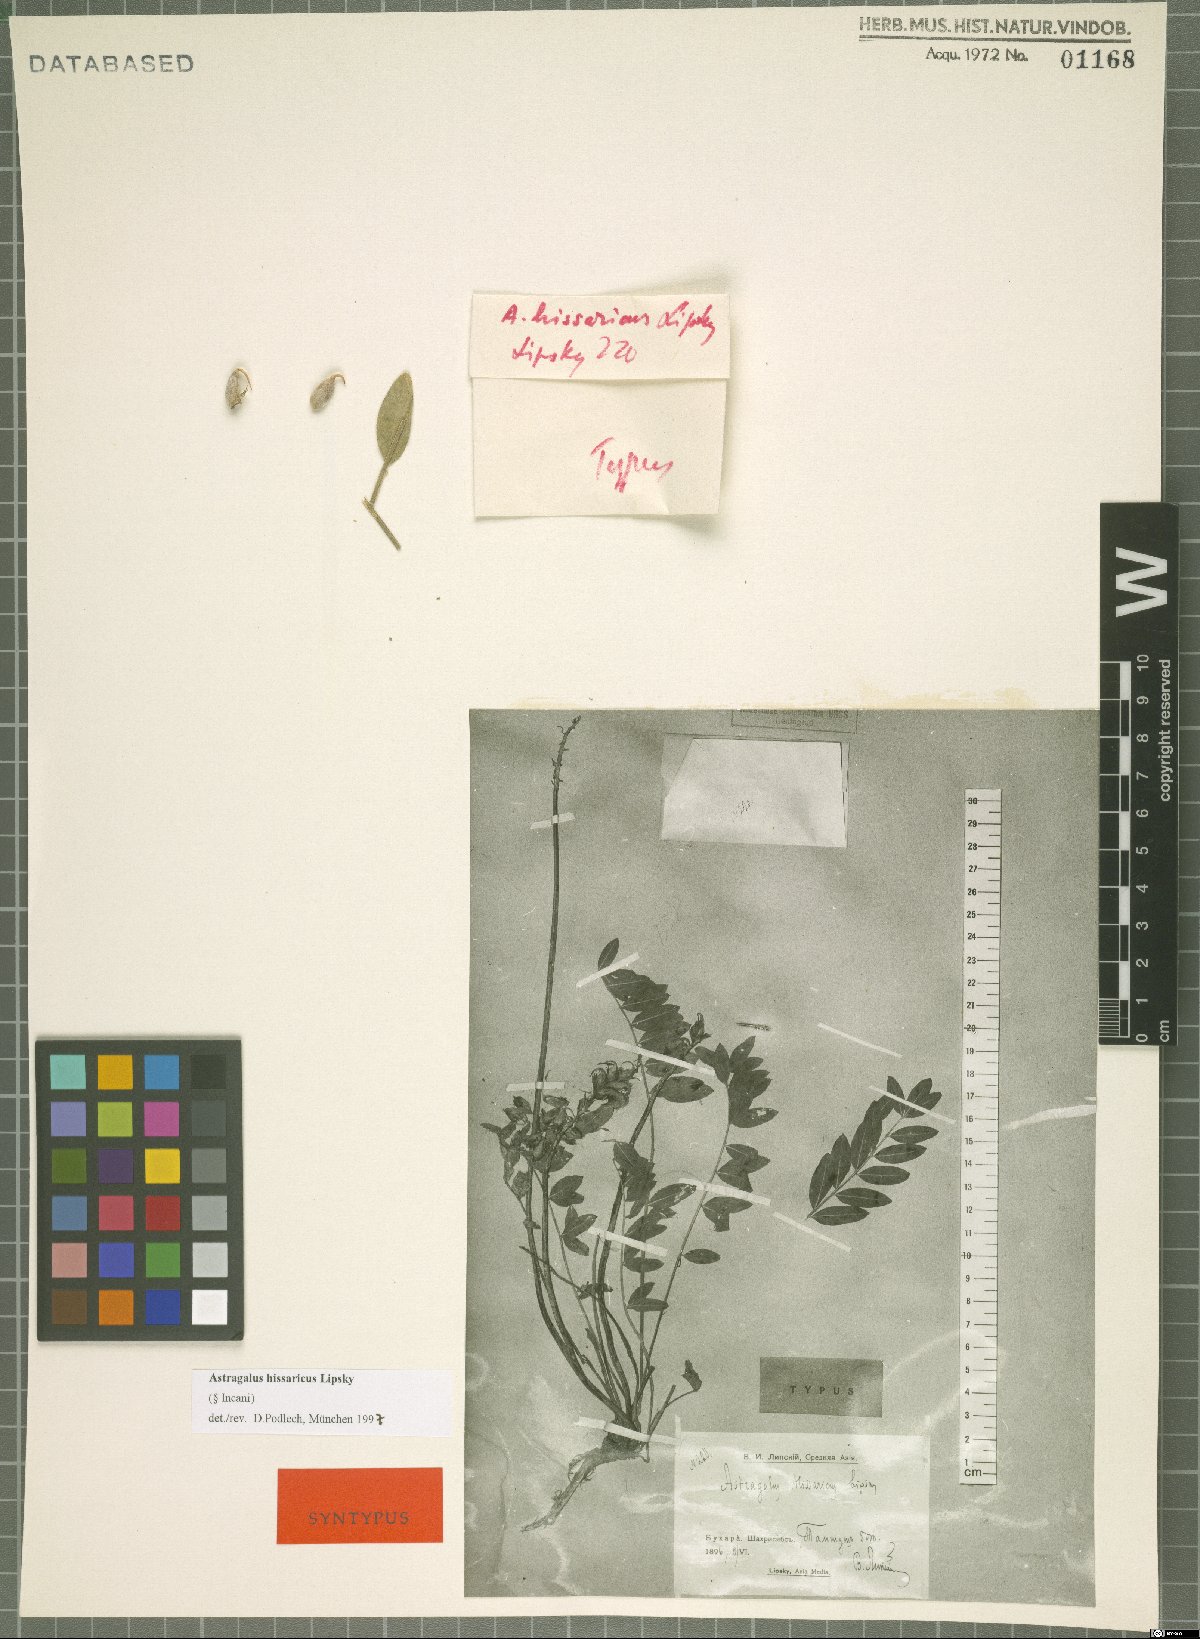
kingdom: Plantae
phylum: Tracheophyta
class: Magnoliopsida
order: Fabales
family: Fabaceae
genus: Astragalus
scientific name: Astragalus hissaricus
